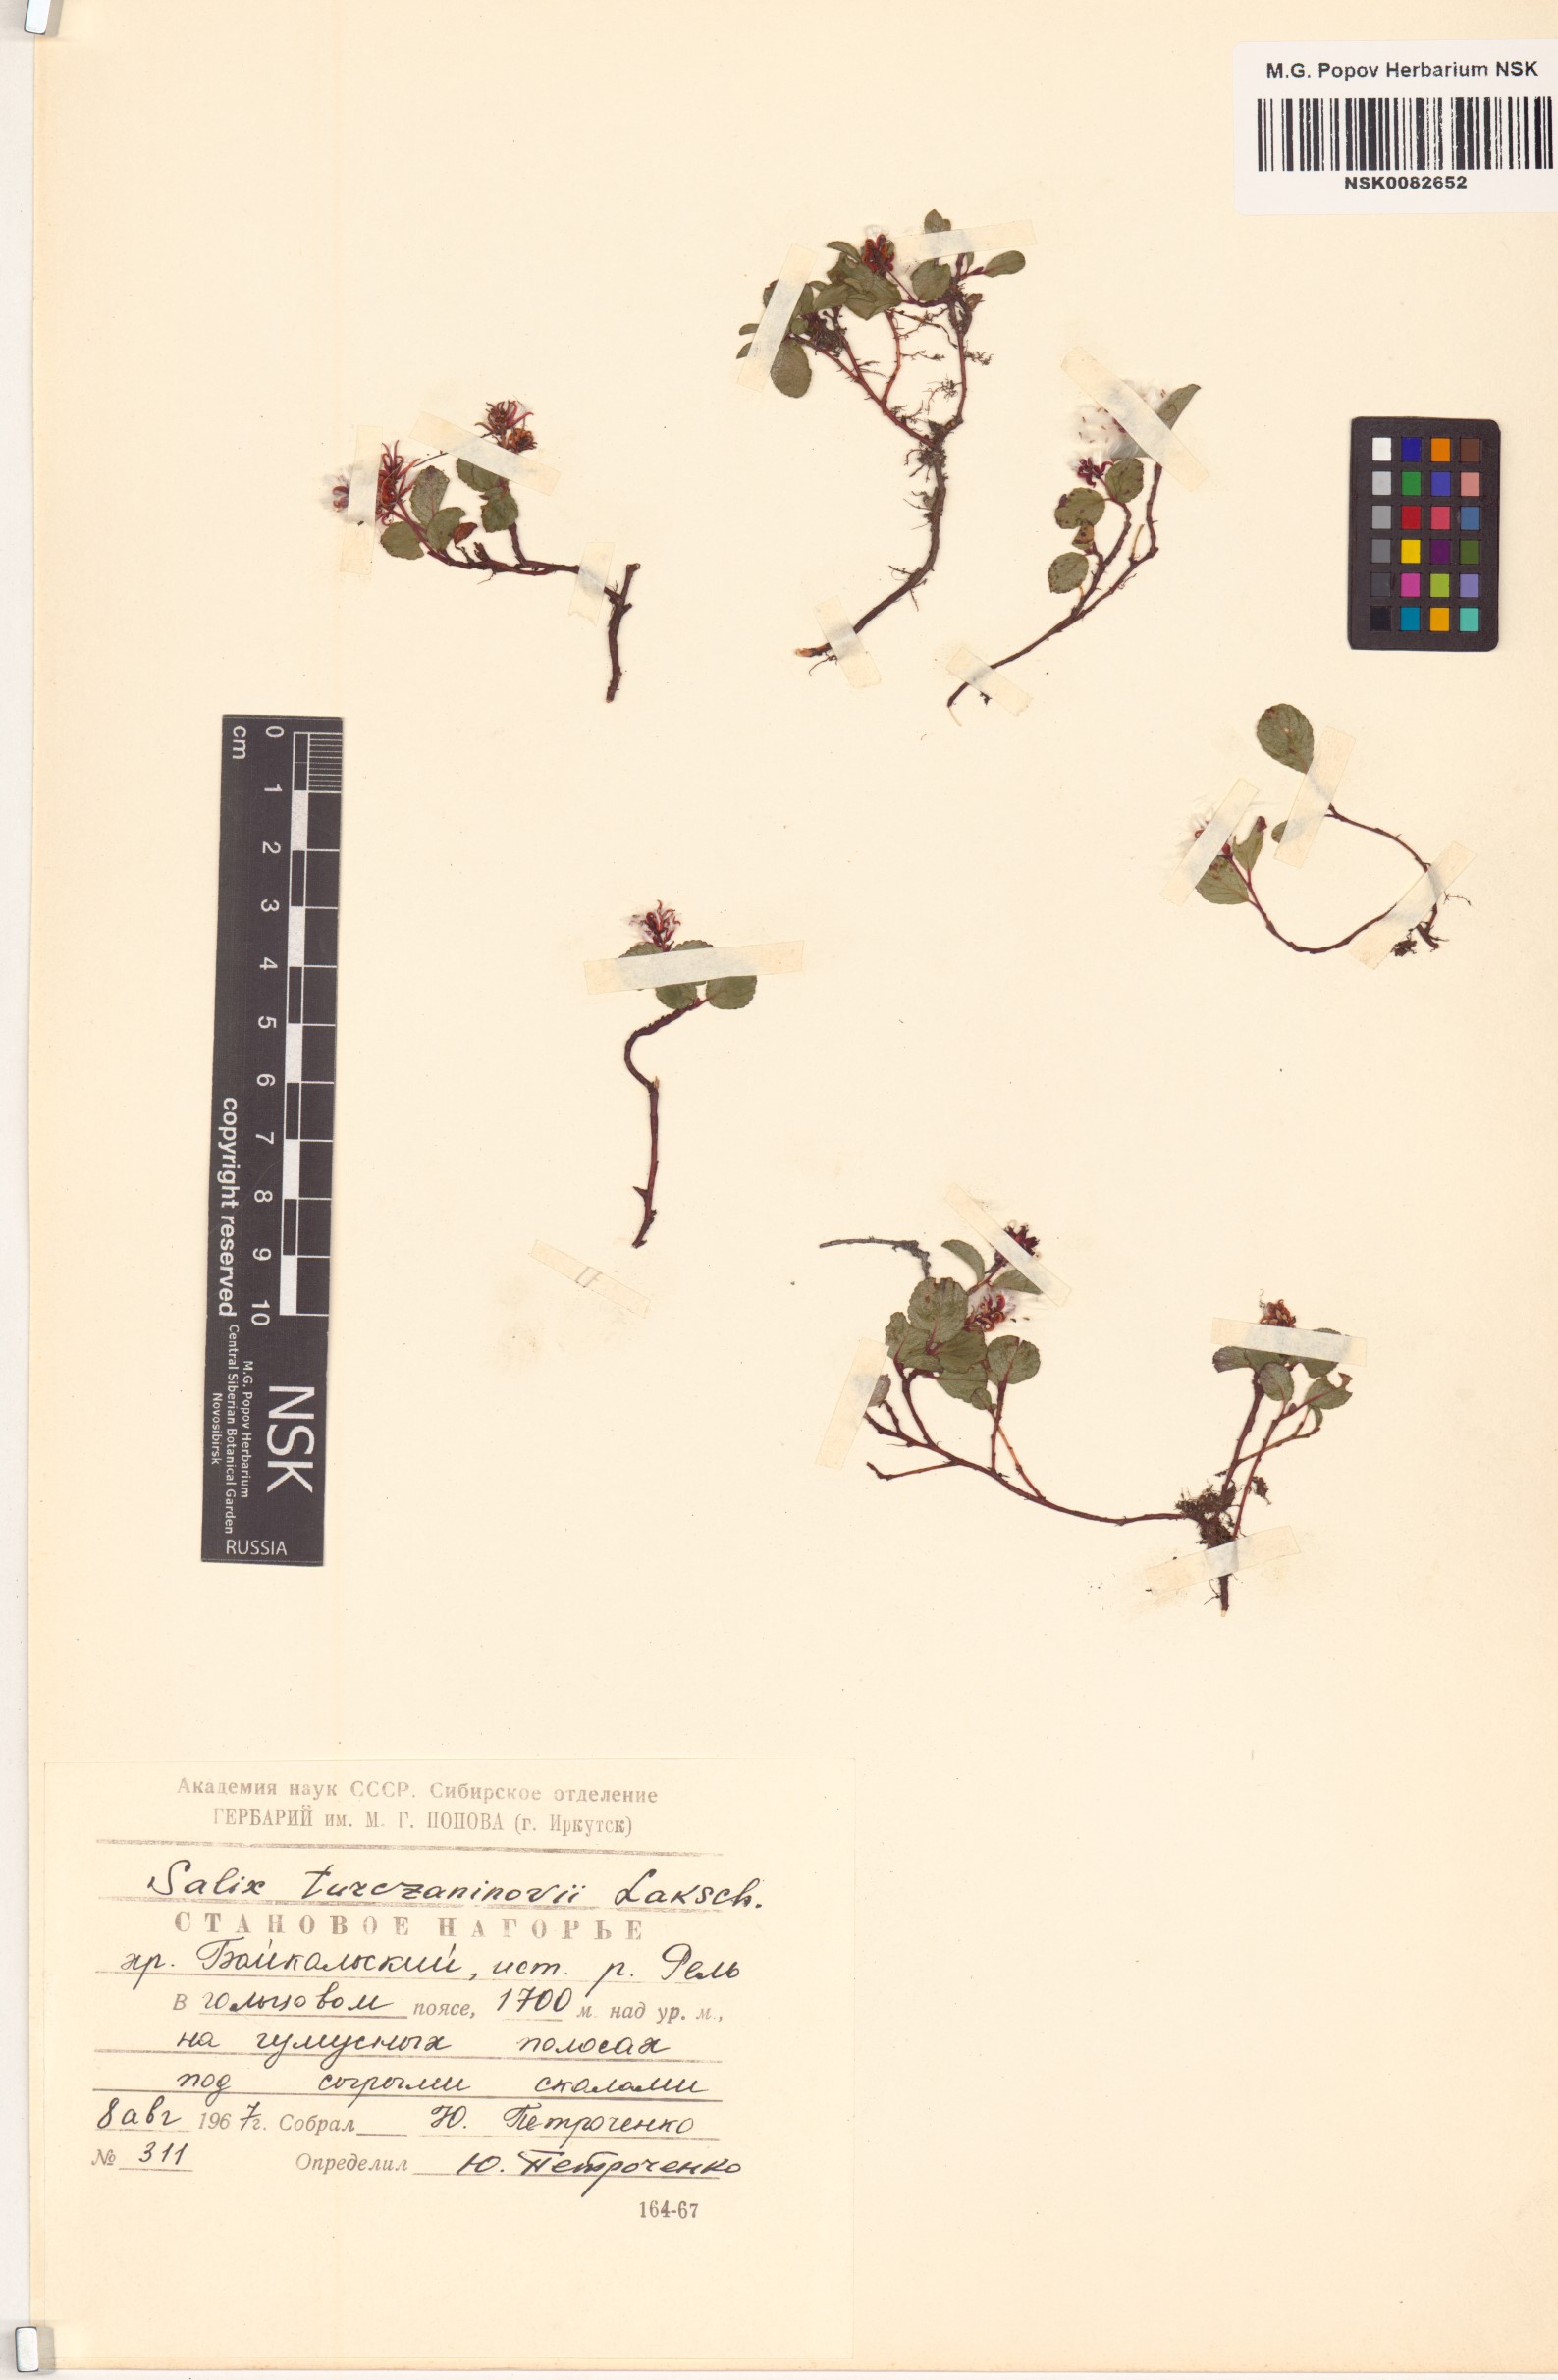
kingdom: Plantae
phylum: Tracheophyta
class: Magnoliopsida
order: Malpighiales
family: Salicaceae
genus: Salix
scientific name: Salix turczaninowii
